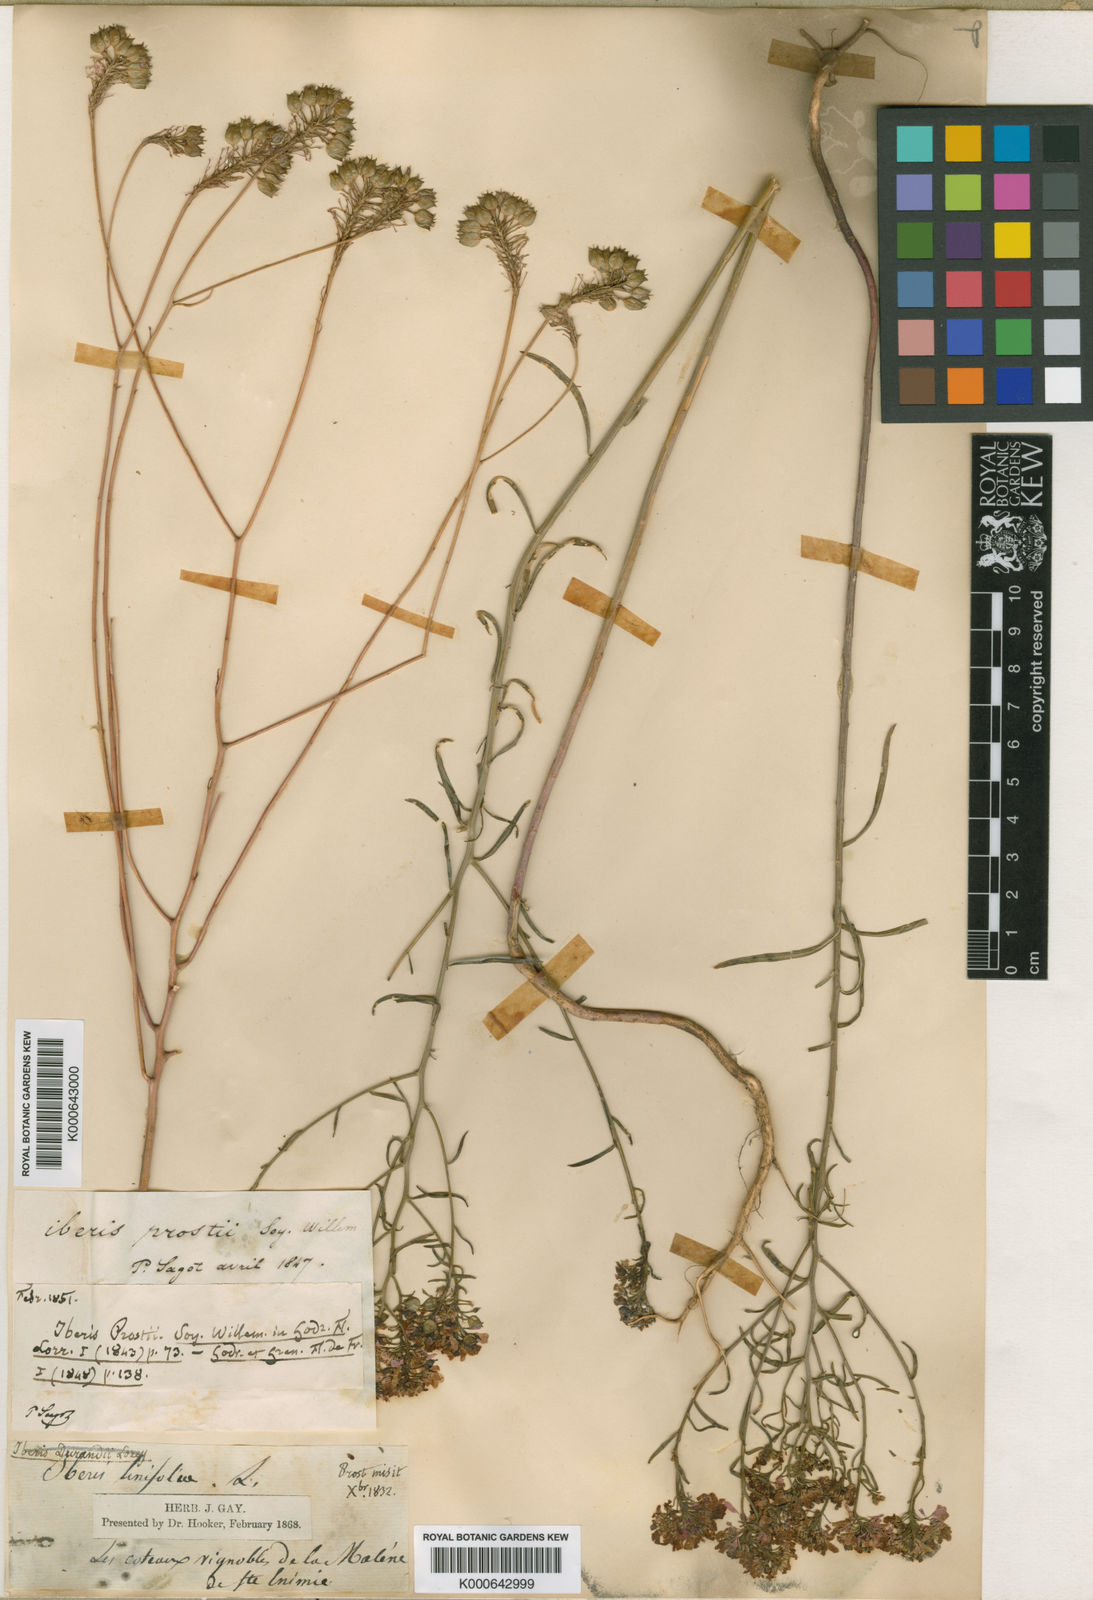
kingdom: Plantae
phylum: Tracheophyta
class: Magnoliopsida
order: Brassicales
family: Brassicaceae
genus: Iberis
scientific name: Iberis linifolia
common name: Candytuft
